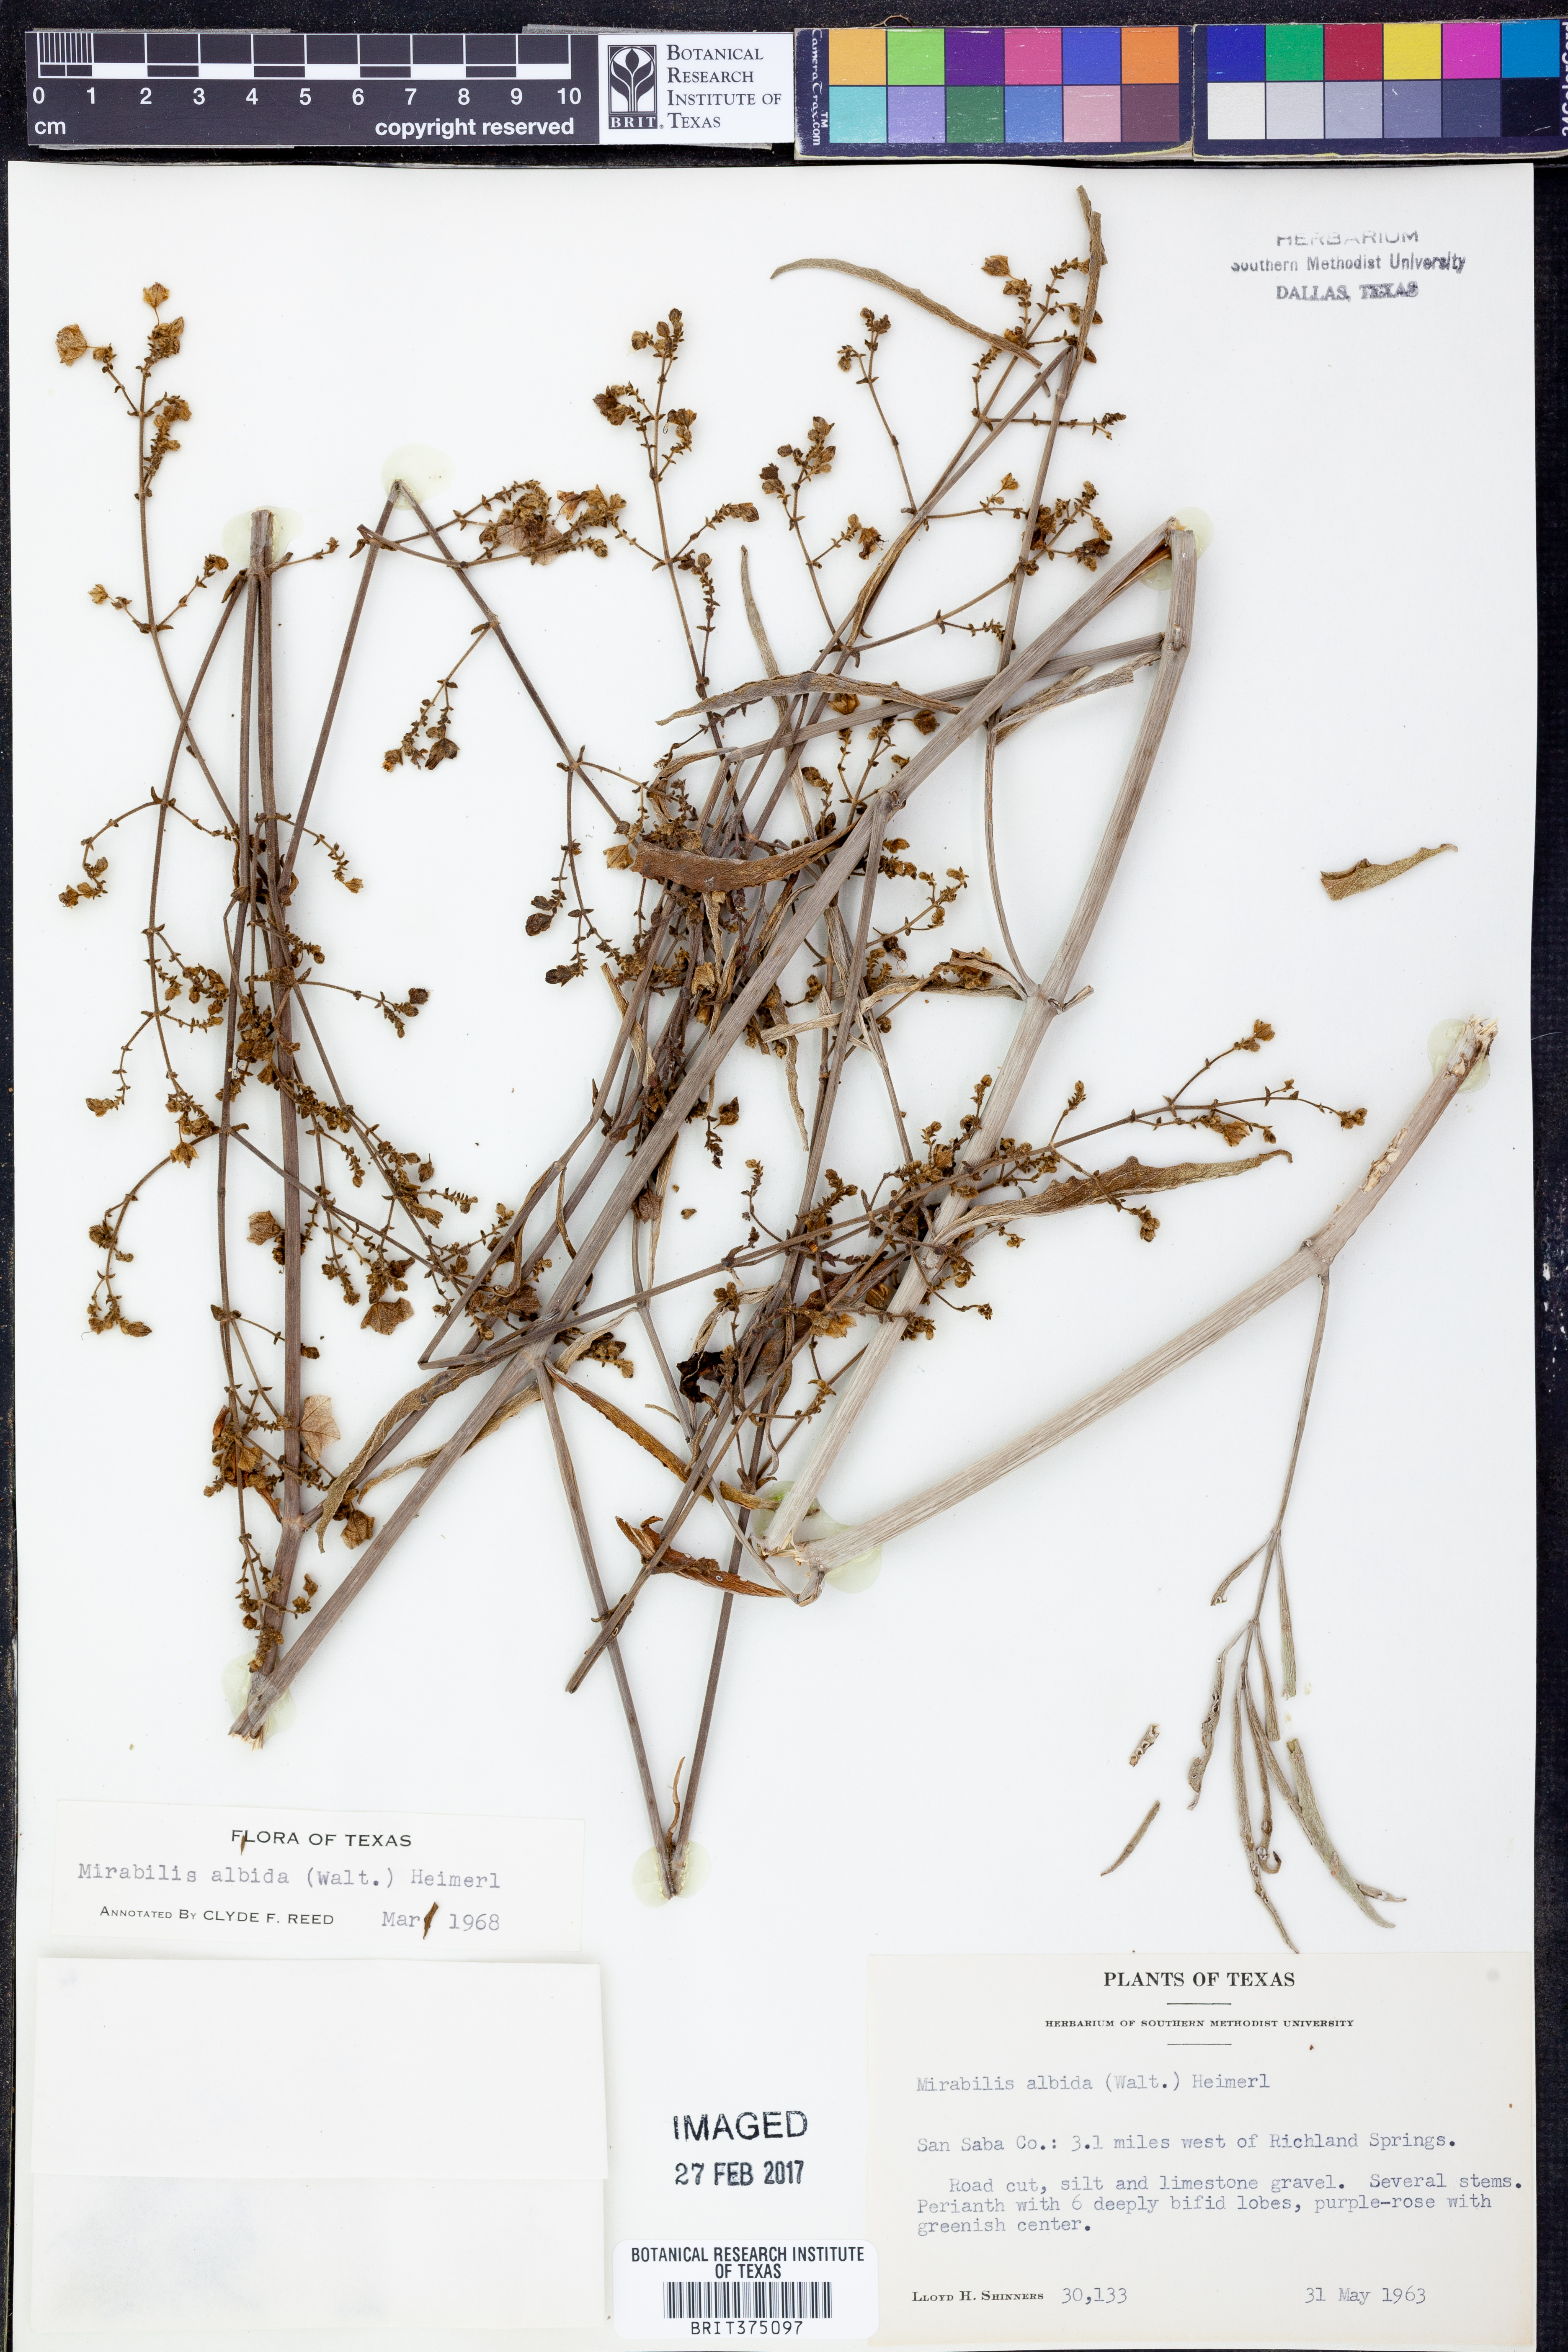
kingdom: Plantae
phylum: Tracheophyta
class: Magnoliopsida
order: Caryophyllales
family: Nyctaginaceae
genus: Mirabilis
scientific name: Mirabilis albida
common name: Hairy four-o'clock
